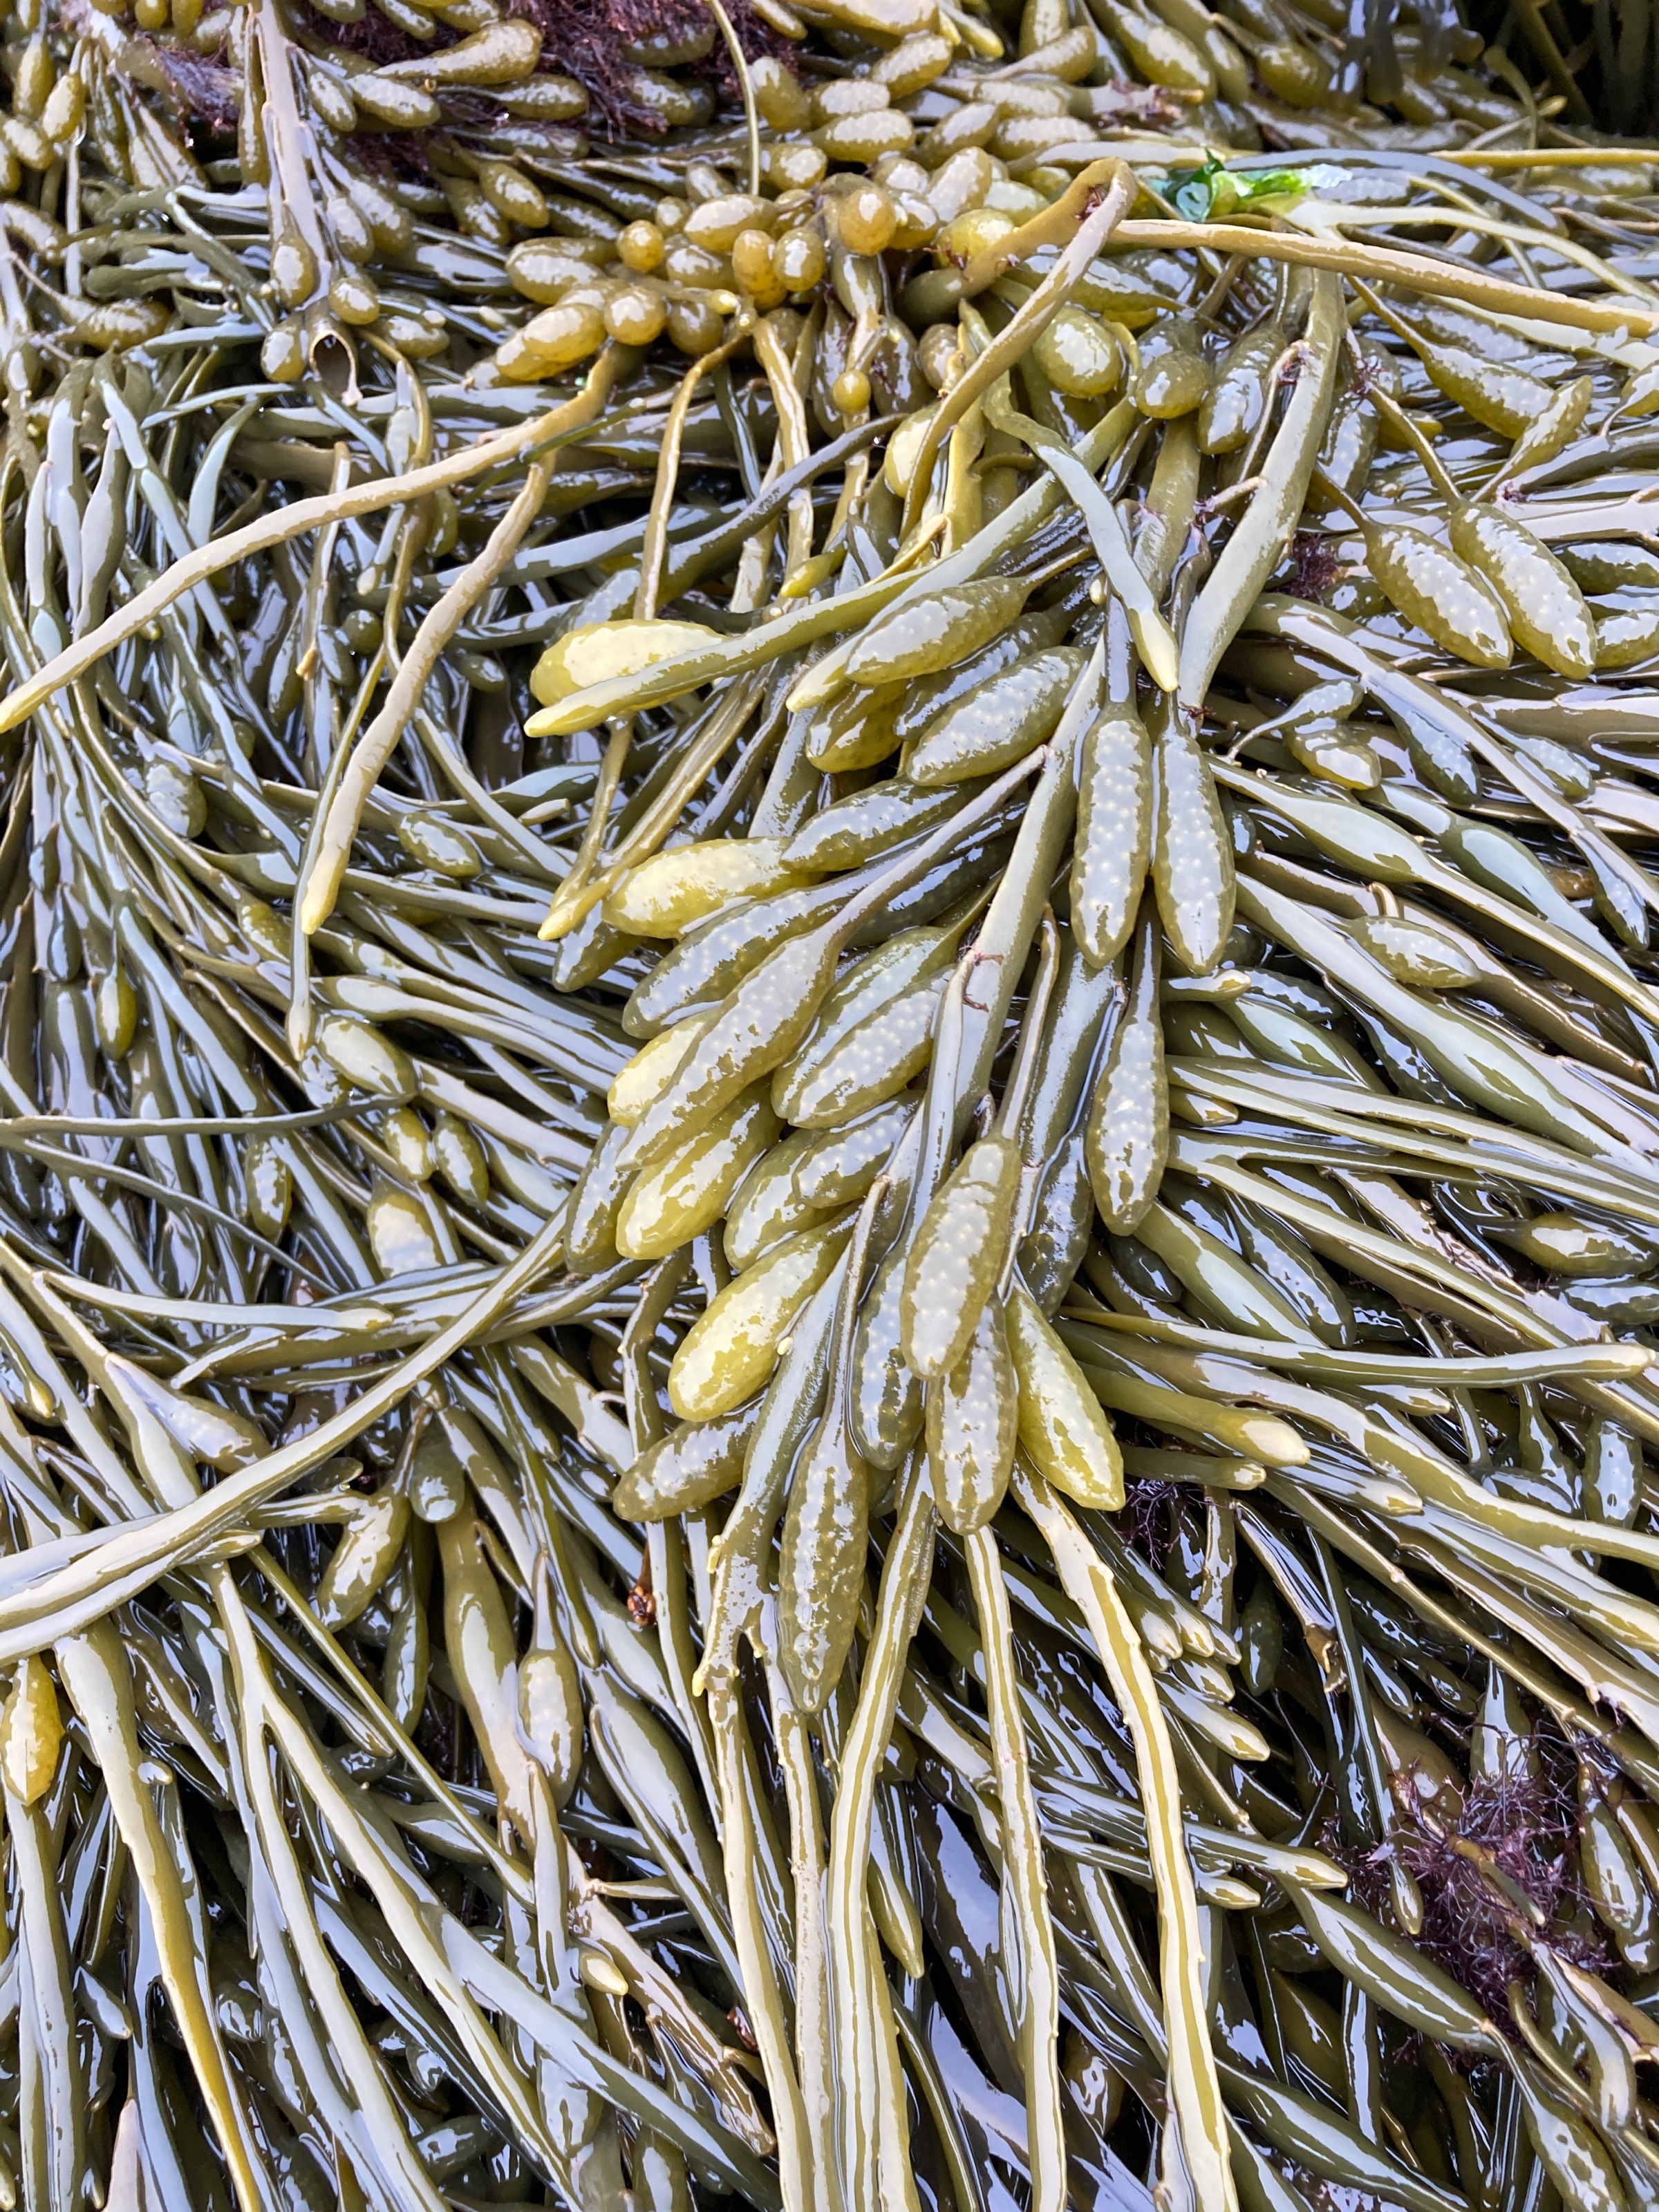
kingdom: Chromista
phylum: Ochrophyta
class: Phaeophyceae
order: Fucales
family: Fucaceae
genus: Ascophyllum
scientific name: Ascophyllum nodosum
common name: Rockweed
